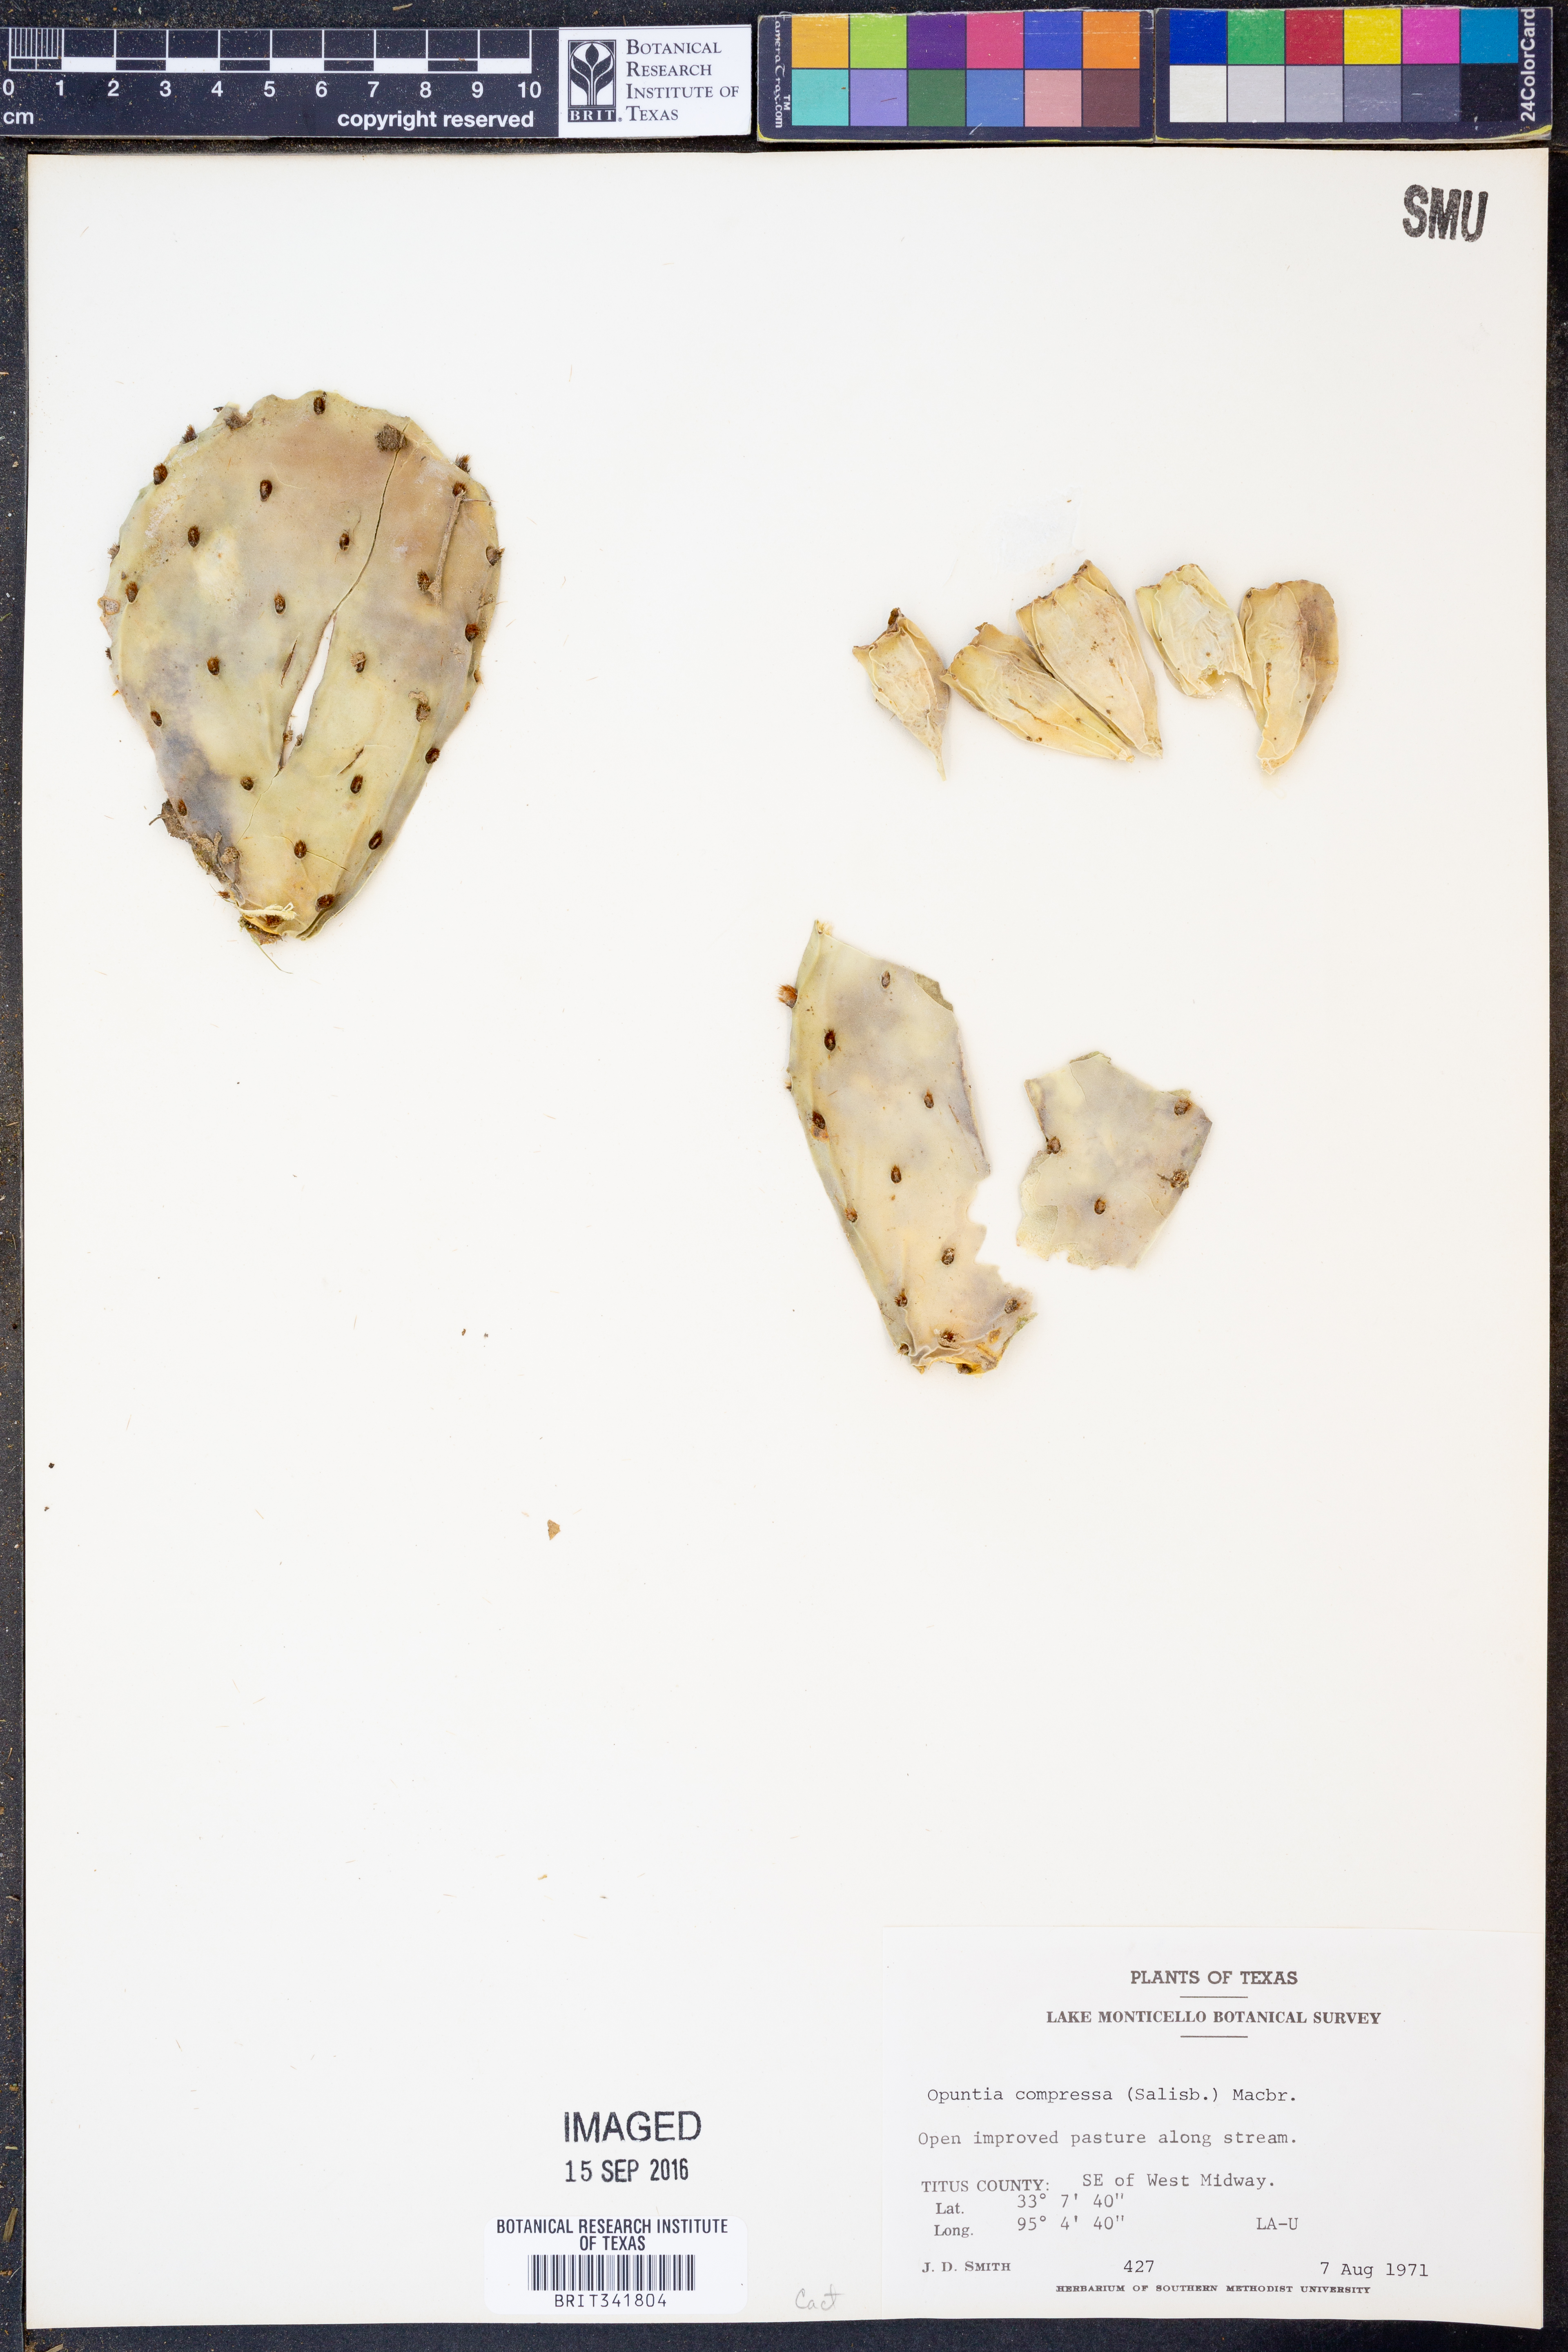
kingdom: Plantae
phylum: Tracheophyta
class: Magnoliopsida
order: Caryophyllales
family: Cactaceae
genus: Opuntia
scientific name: Opuntia humifusa
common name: Eastern prickly-pear
